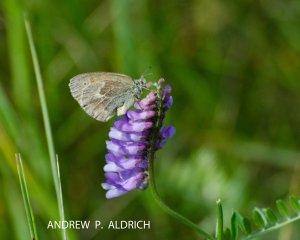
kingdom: Animalia
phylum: Arthropoda
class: Insecta
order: Lepidoptera
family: Nymphalidae
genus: Coenonympha
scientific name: Coenonympha tullia
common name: Large Heath
